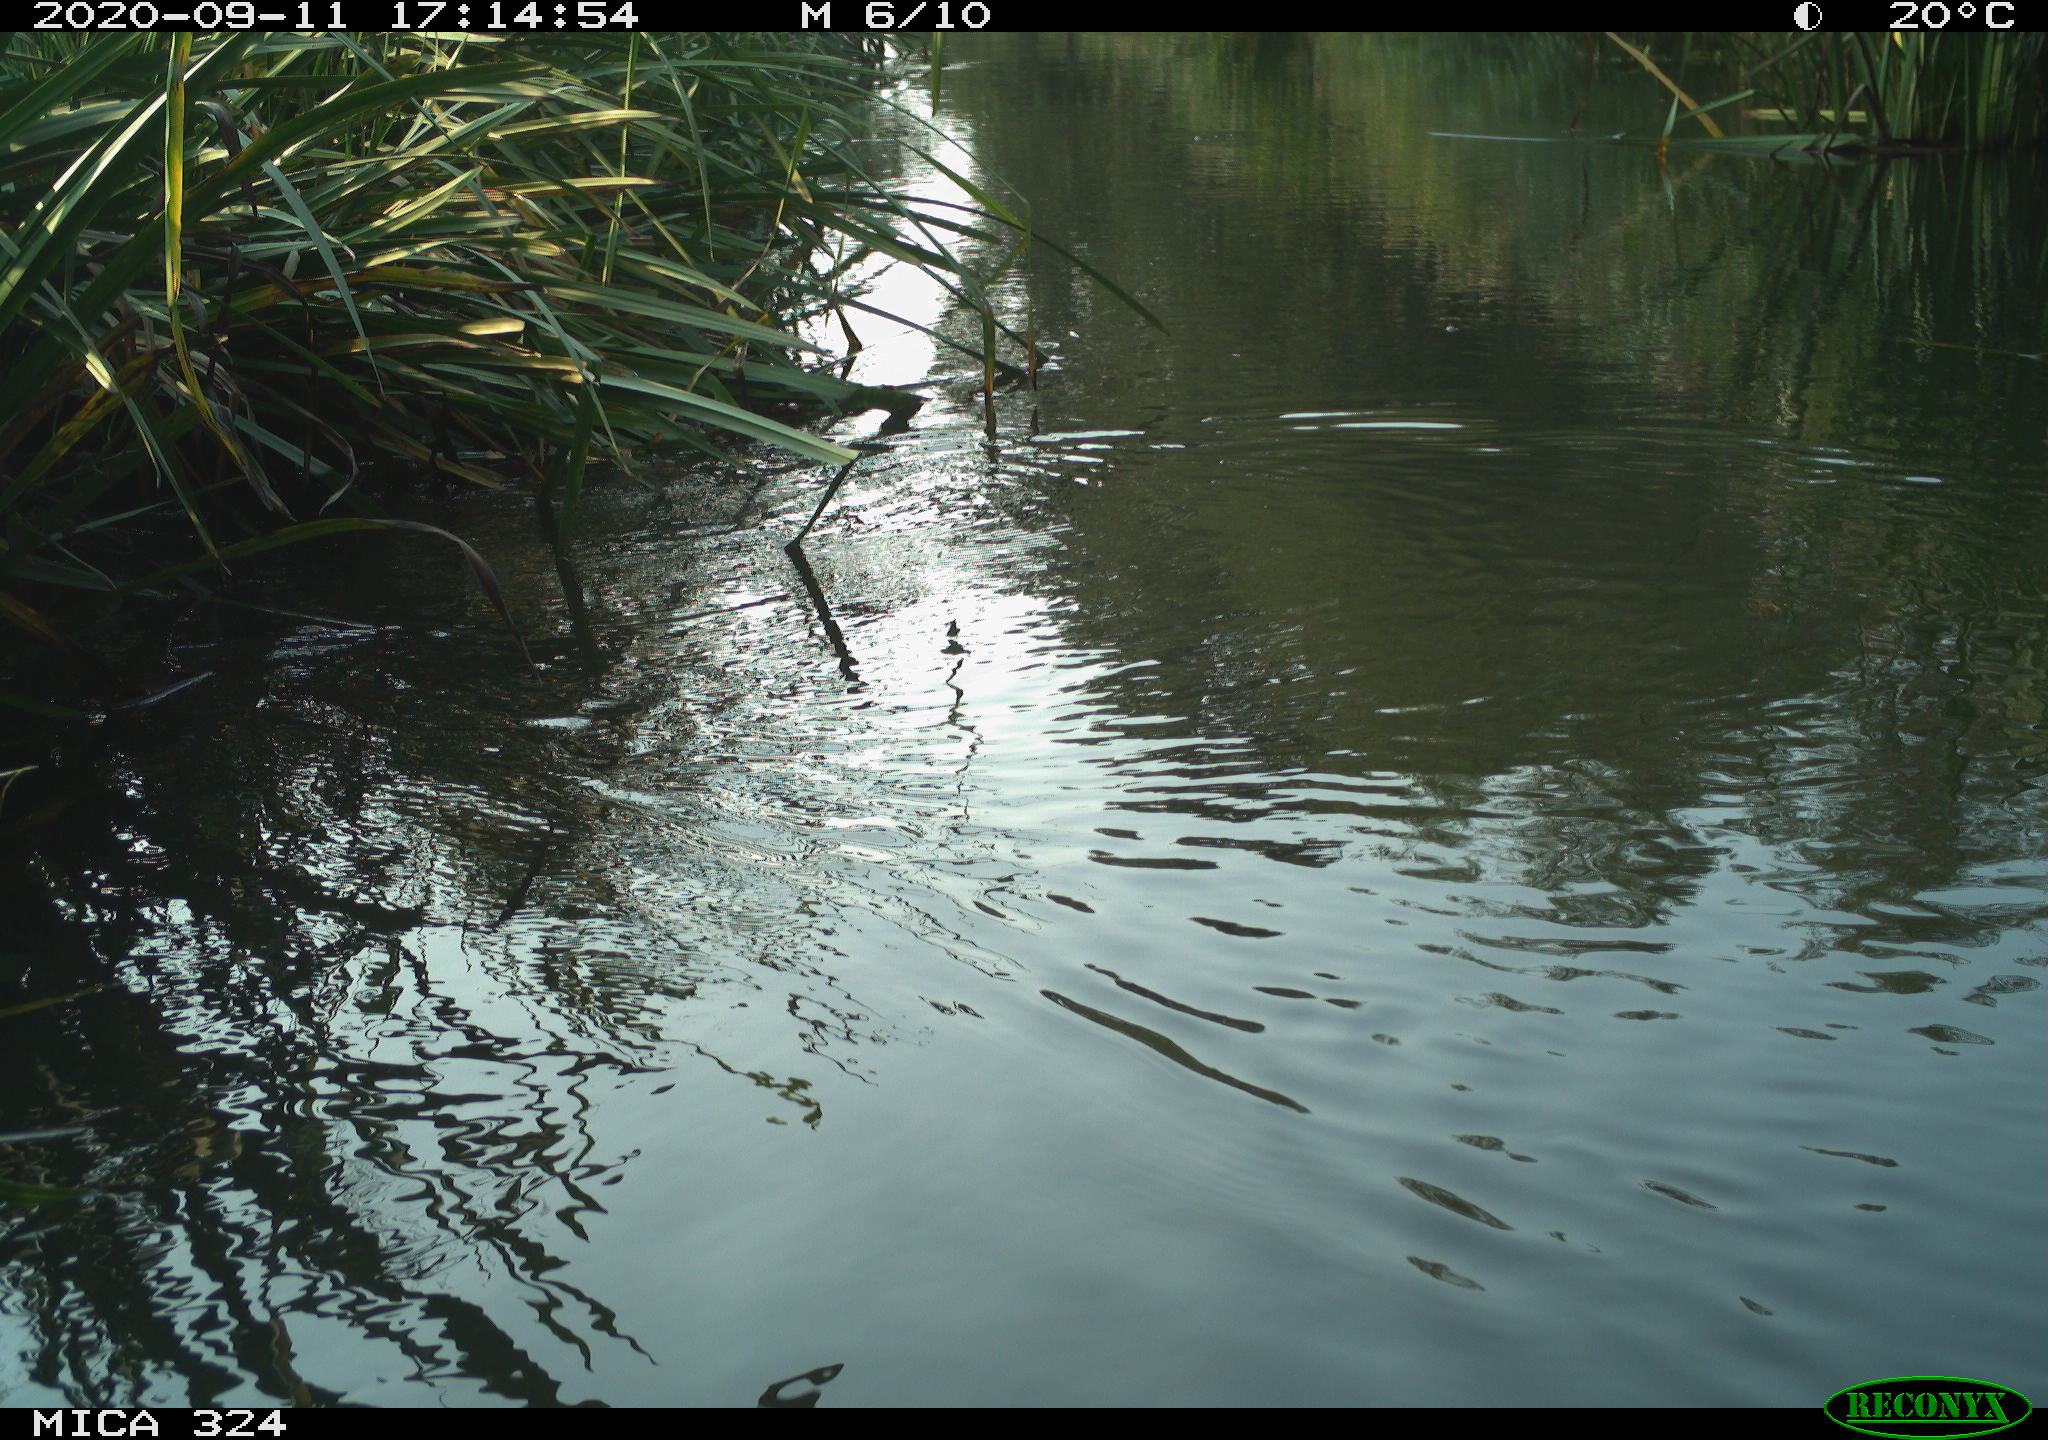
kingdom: Animalia
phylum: Chordata
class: Mammalia
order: Rodentia
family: Cricetidae
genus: Ondatra
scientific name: Ondatra zibethicus
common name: Muskrat
